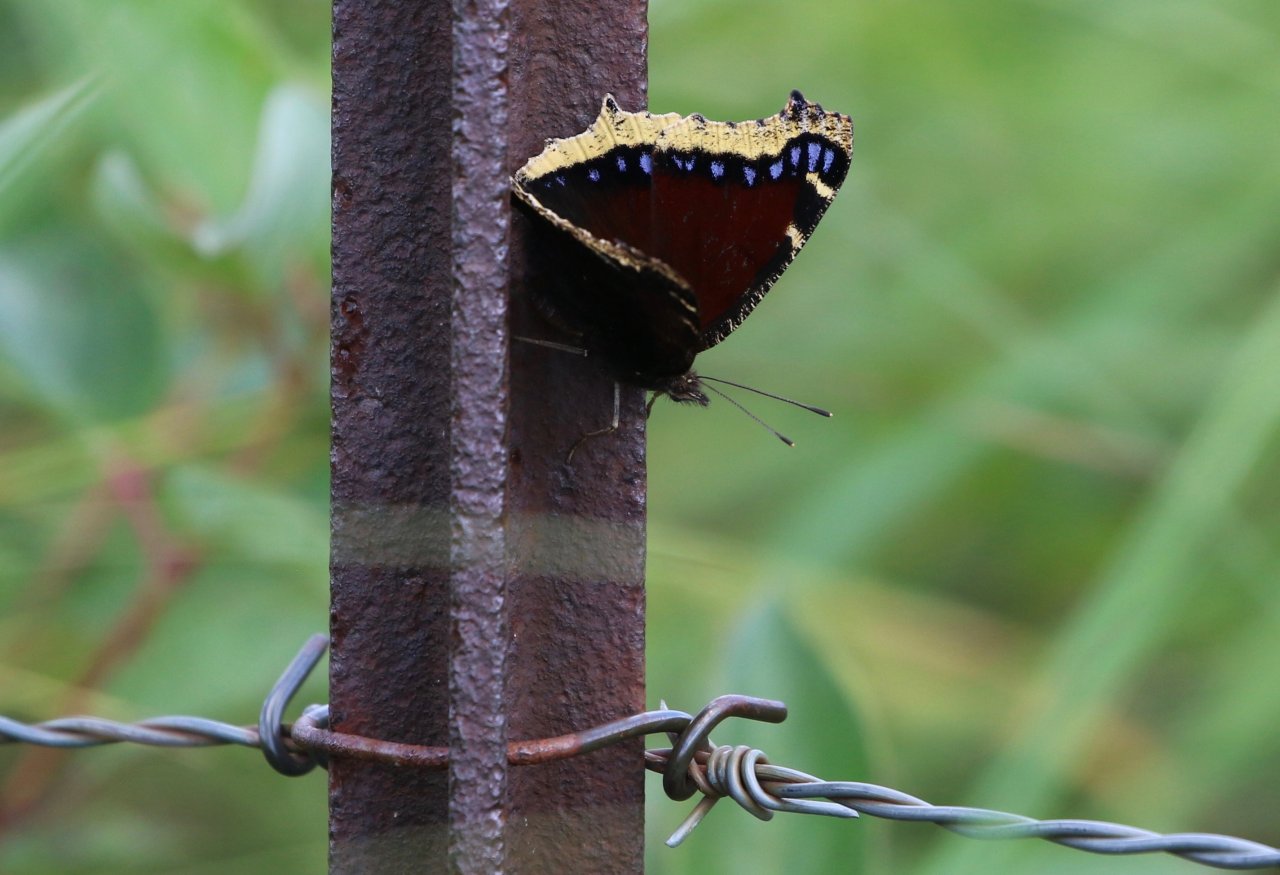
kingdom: Animalia
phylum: Arthropoda
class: Insecta
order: Lepidoptera
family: Nymphalidae
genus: Nymphalis
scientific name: Nymphalis antiopa
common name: Mourning Cloak
